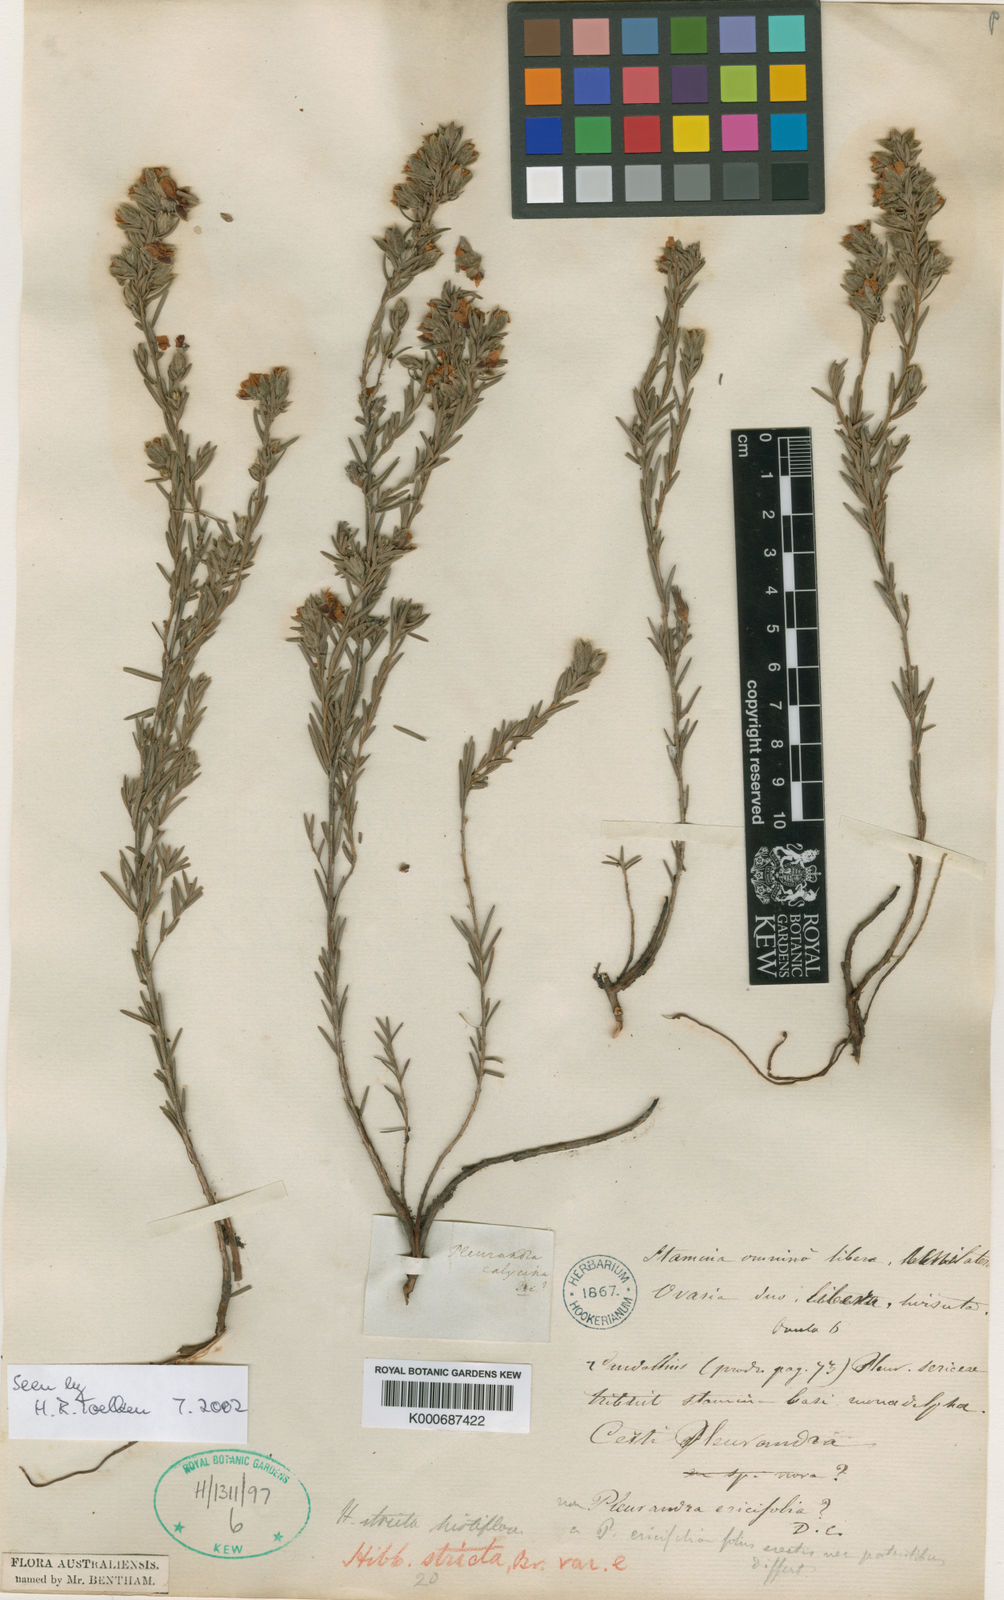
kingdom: Plantae
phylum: Tracheophyta
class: Magnoliopsida
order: Dilleniales
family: Dilleniaceae
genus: Hibbertia
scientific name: Hibbertia stricta
